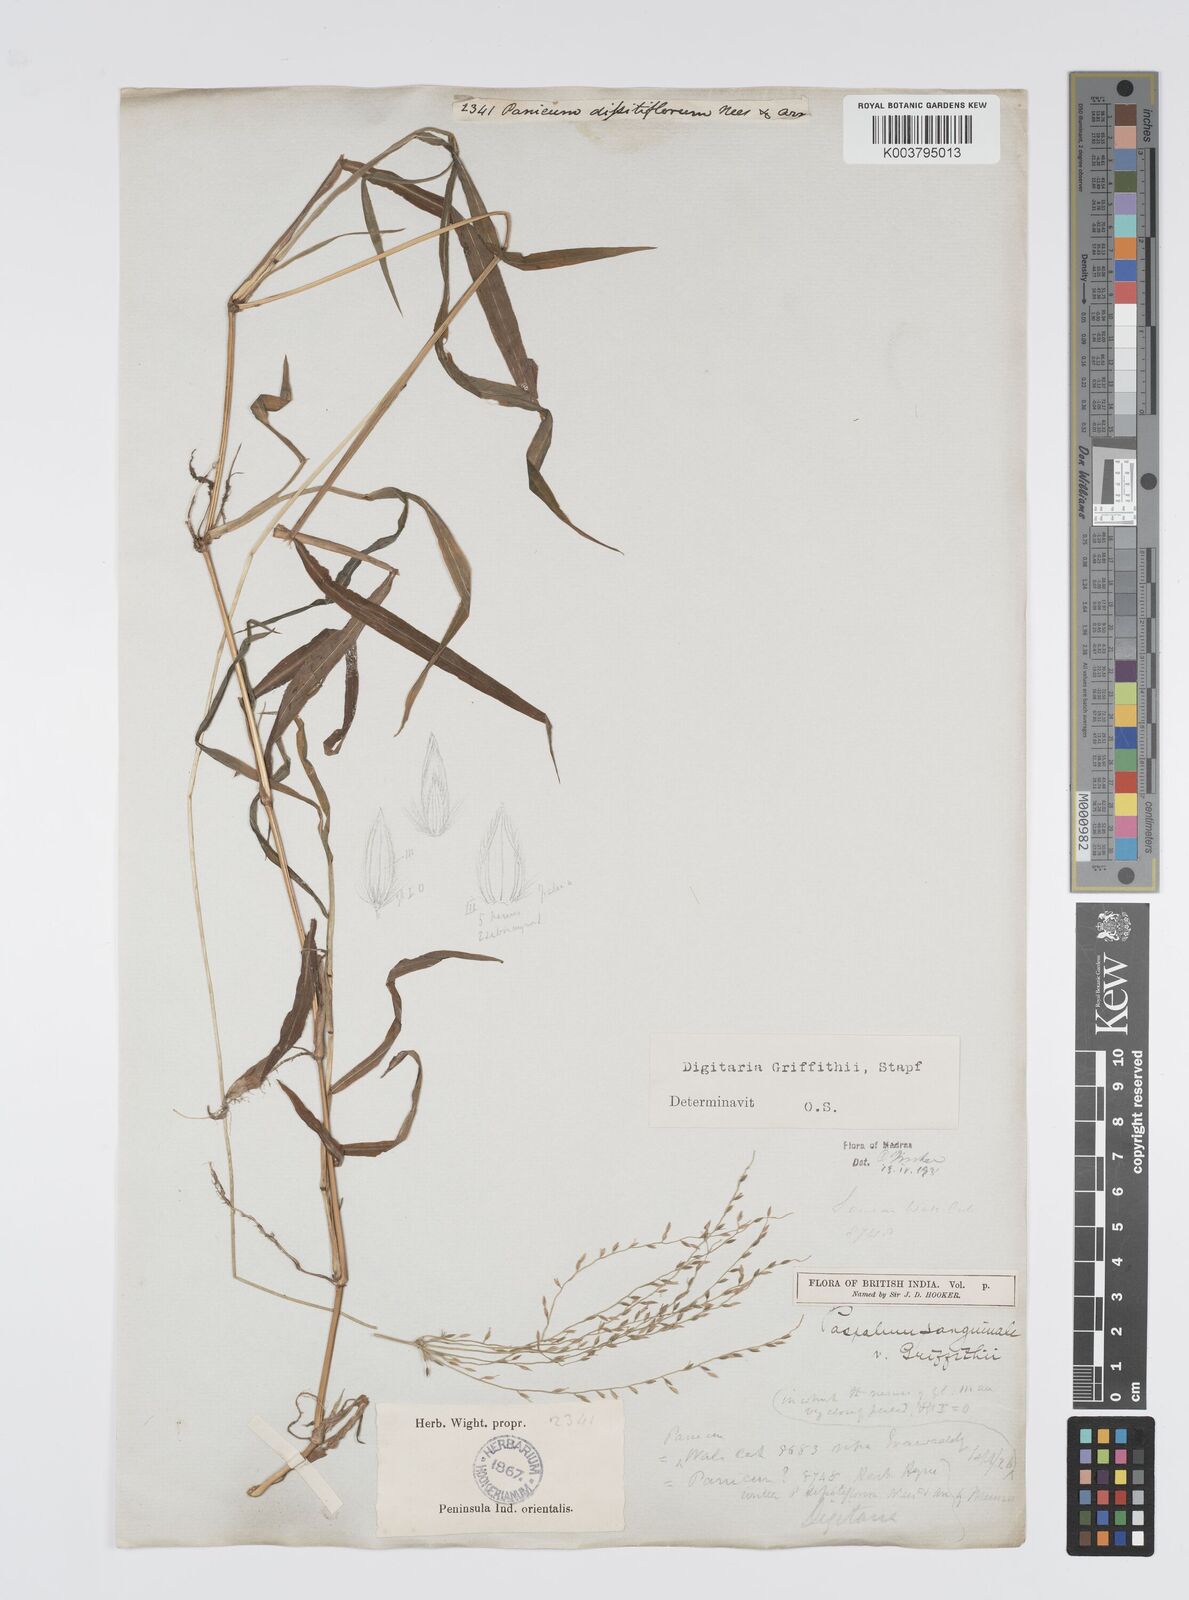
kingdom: Plantae
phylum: Tracheophyta
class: Liliopsida
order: Poales
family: Poaceae
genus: Digitaria
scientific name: Digitaria griffithii
